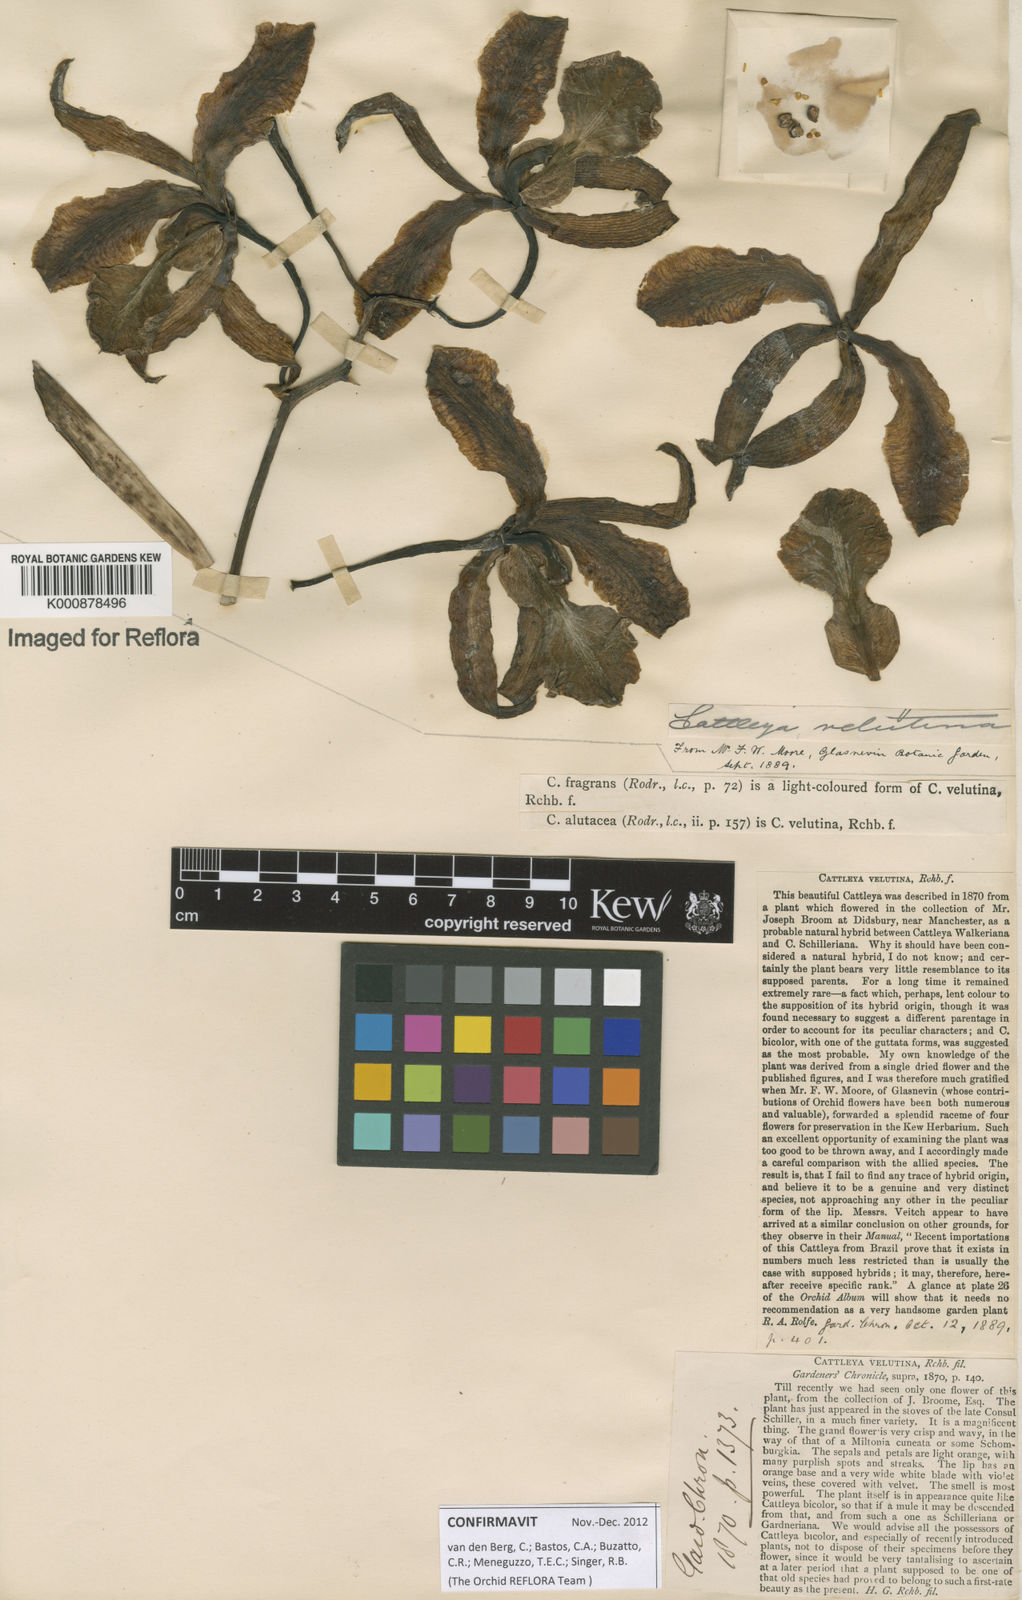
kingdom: Plantae
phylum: Tracheophyta
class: Liliopsida
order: Asparagales
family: Orchidaceae
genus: Cattleya
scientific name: Cattleya velutina
